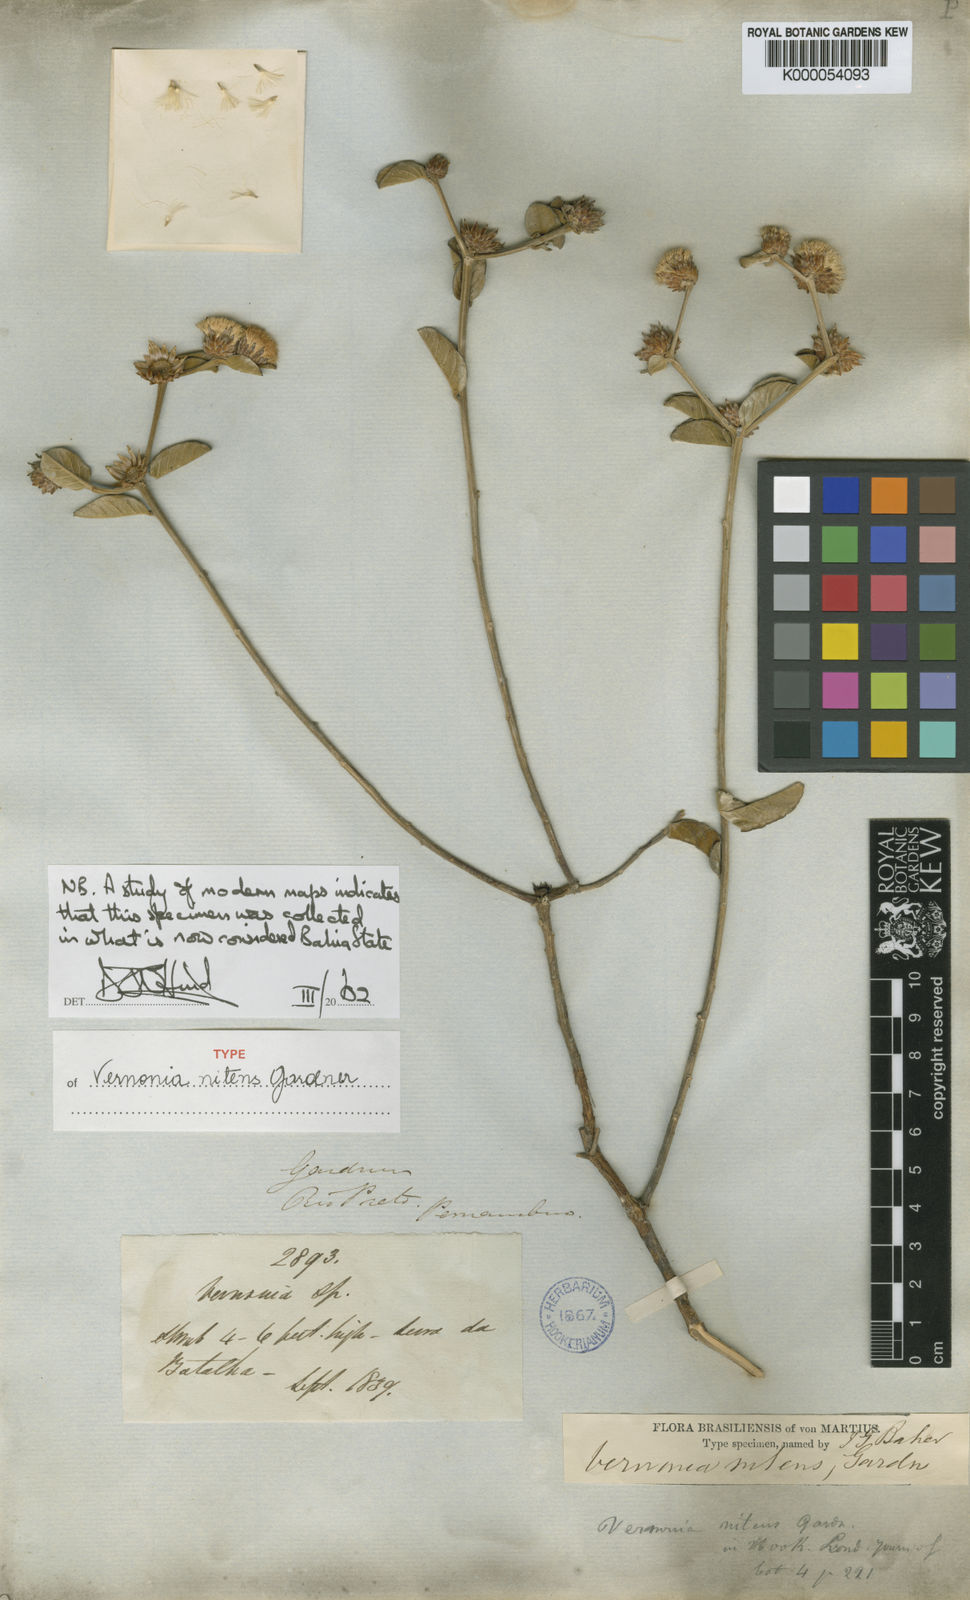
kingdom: Plantae
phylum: Tracheophyta
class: Magnoliopsida
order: Asterales
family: Asteraceae
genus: Lepidaploa
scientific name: Lepidaploa nitens
